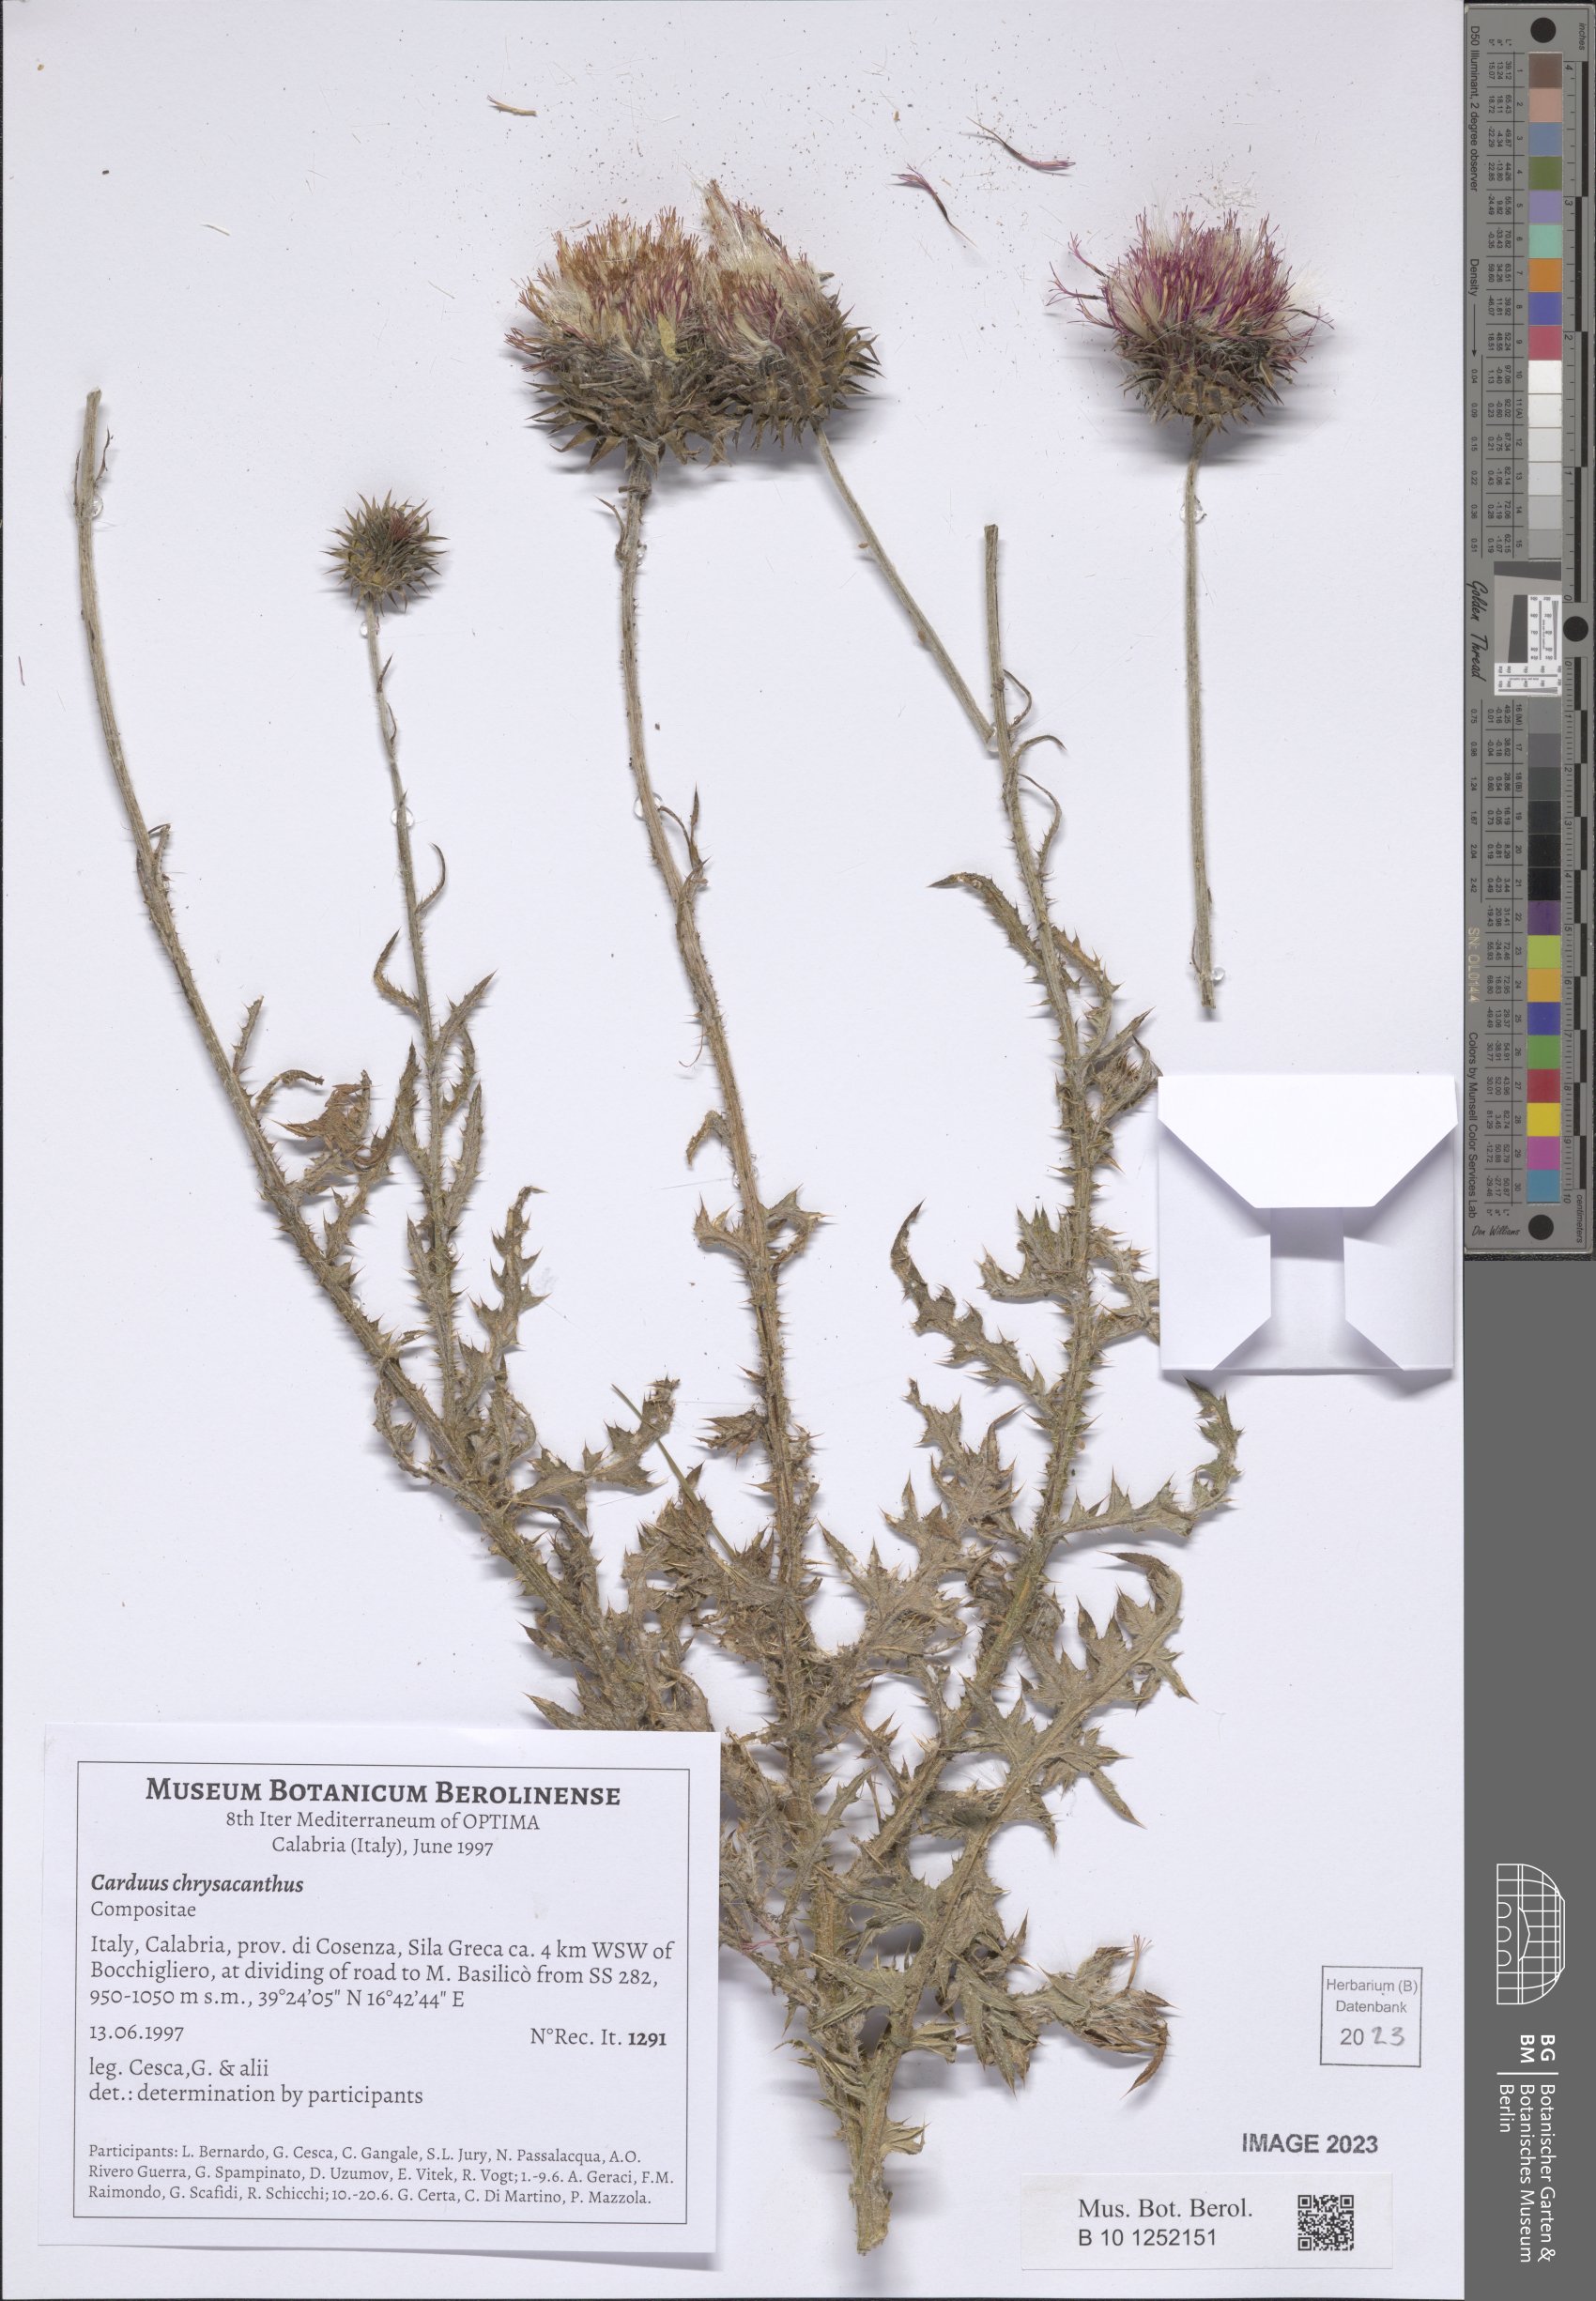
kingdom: Plantae
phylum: Tracheophyta
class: Magnoliopsida
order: Asterales
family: Asteraceae
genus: Carduus
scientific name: Carduus chrysacanthus
